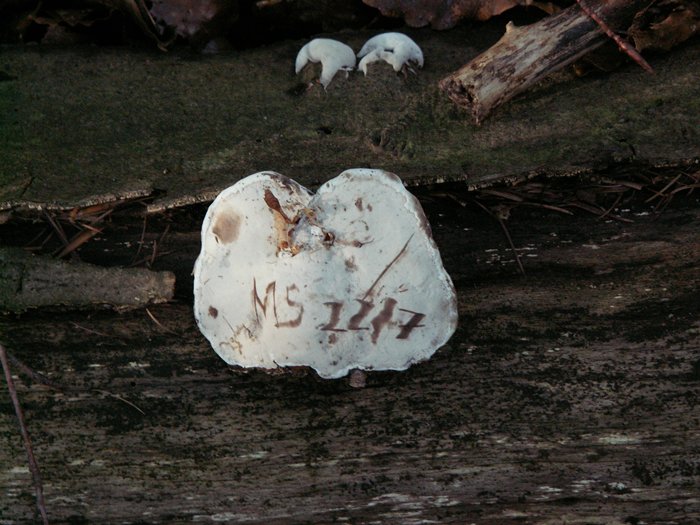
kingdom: Fungi
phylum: Basidiomycota
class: Agaricomycetes
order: Polyporales
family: Polyporaceae
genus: Ganoderma
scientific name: Ganoderma applanatum
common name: flad lakporesvamp
